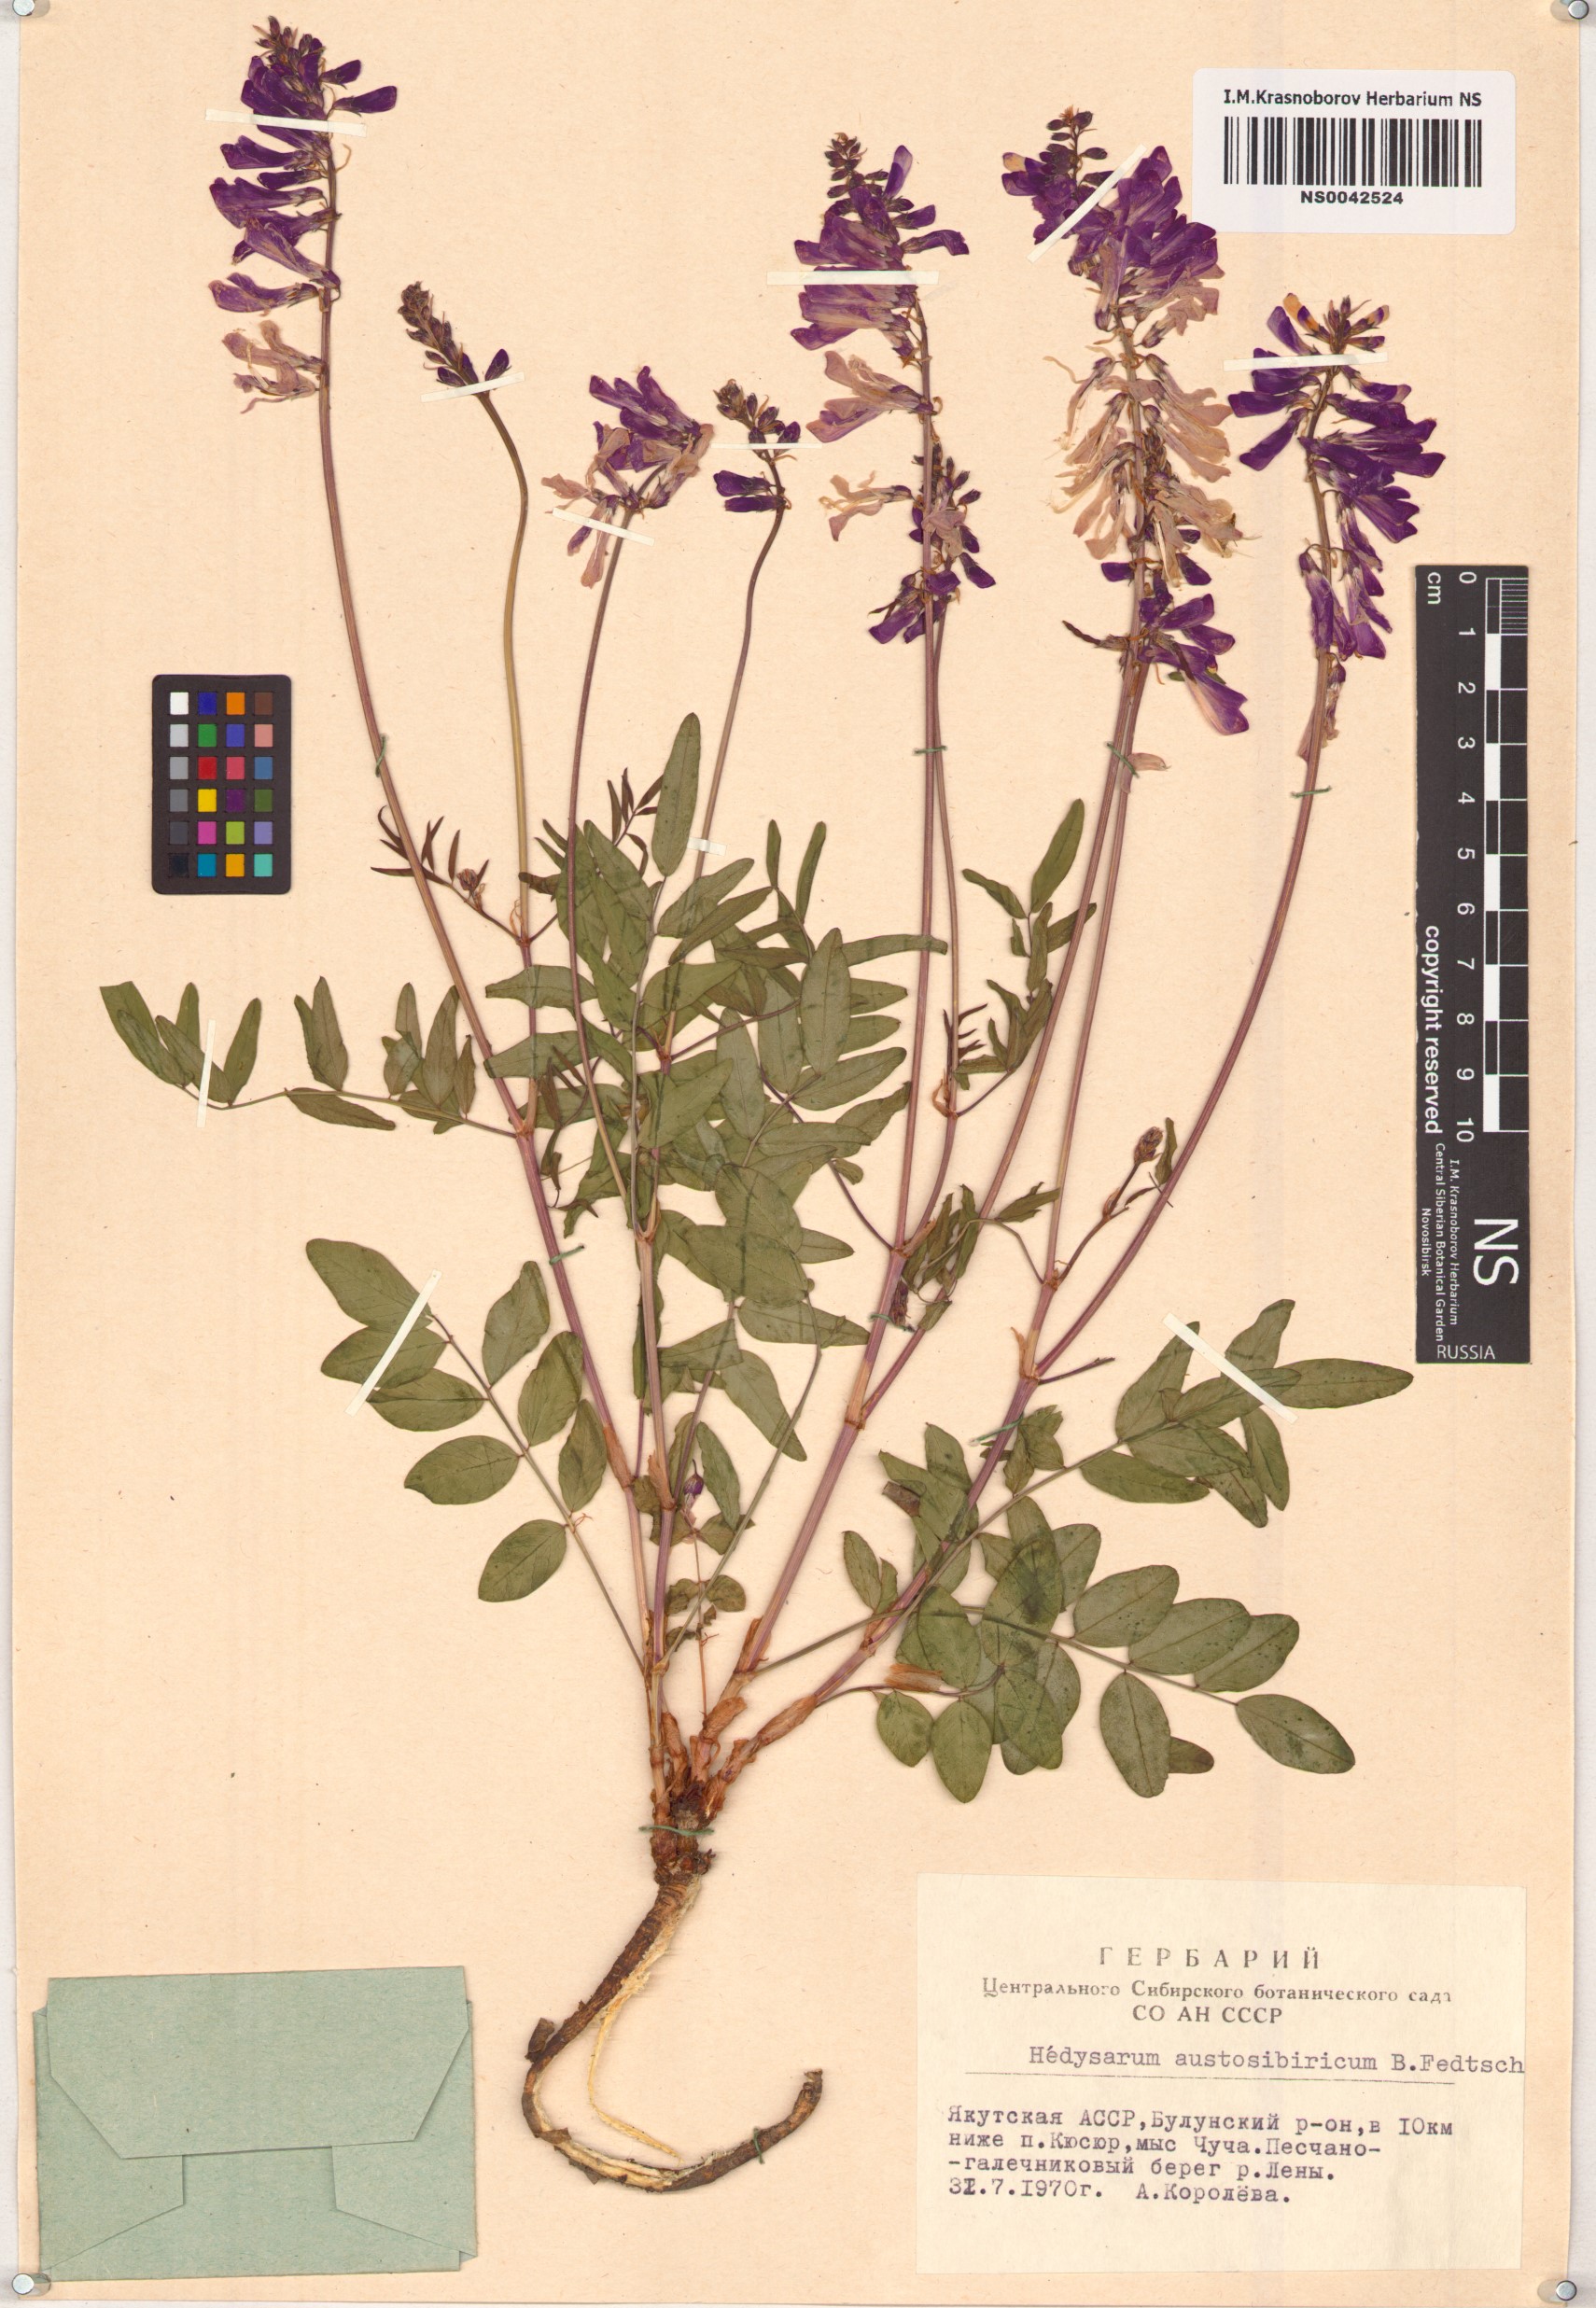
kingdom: Plantae
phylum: Tracheophyta
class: Magnoliopsida
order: Fabales
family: Fabaceae
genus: Hedysarum
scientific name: Hedysarum neglectum
